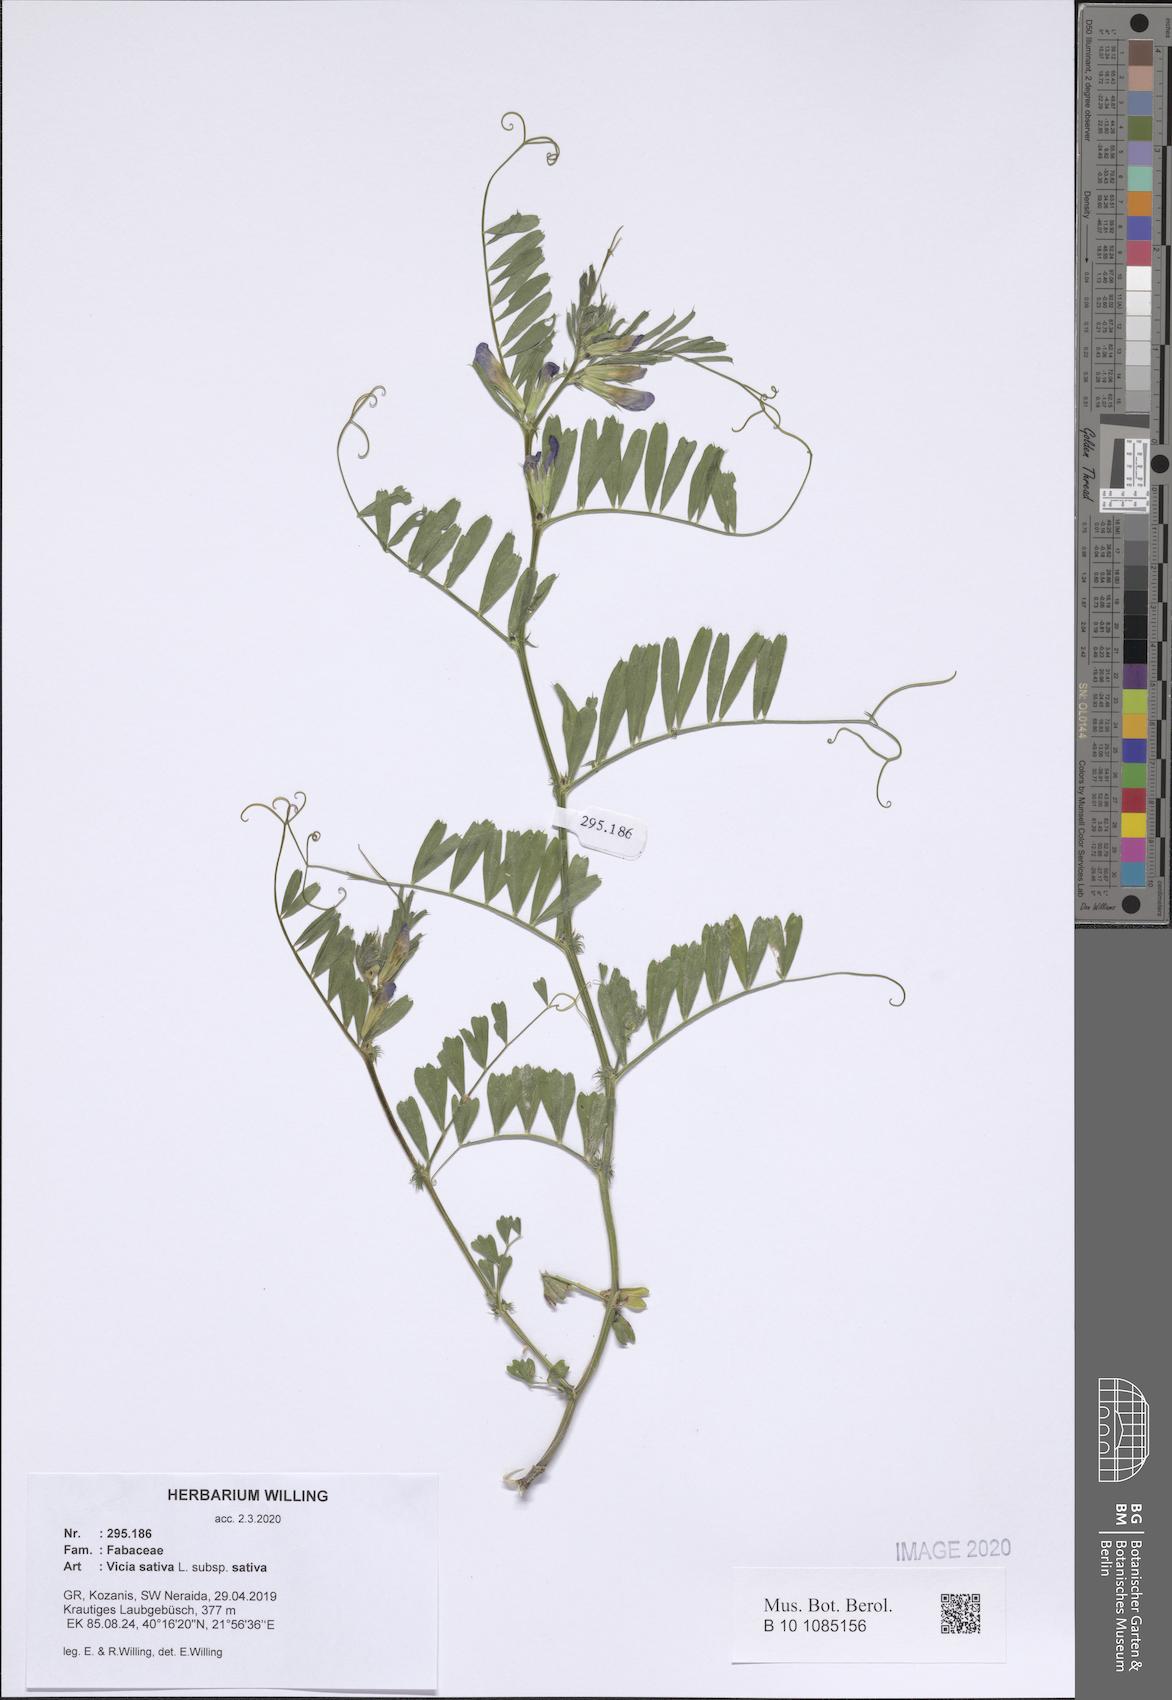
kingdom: Plantae
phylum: Tracheophyta
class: Magnoliopsida
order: Fabales
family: Fabaceae
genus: Vicia
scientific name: Vicia sativa
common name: Garden vetch
